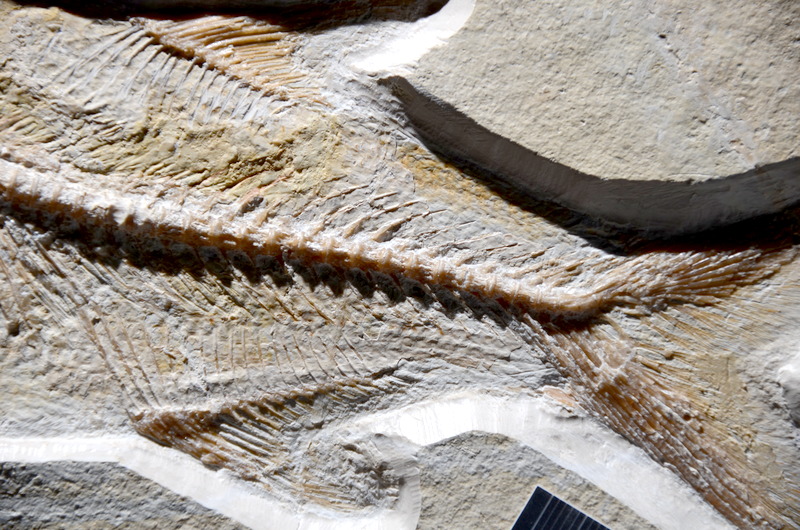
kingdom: Animalia
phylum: Chordata
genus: Pachythrissops
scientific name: Pachythrissops propterus
